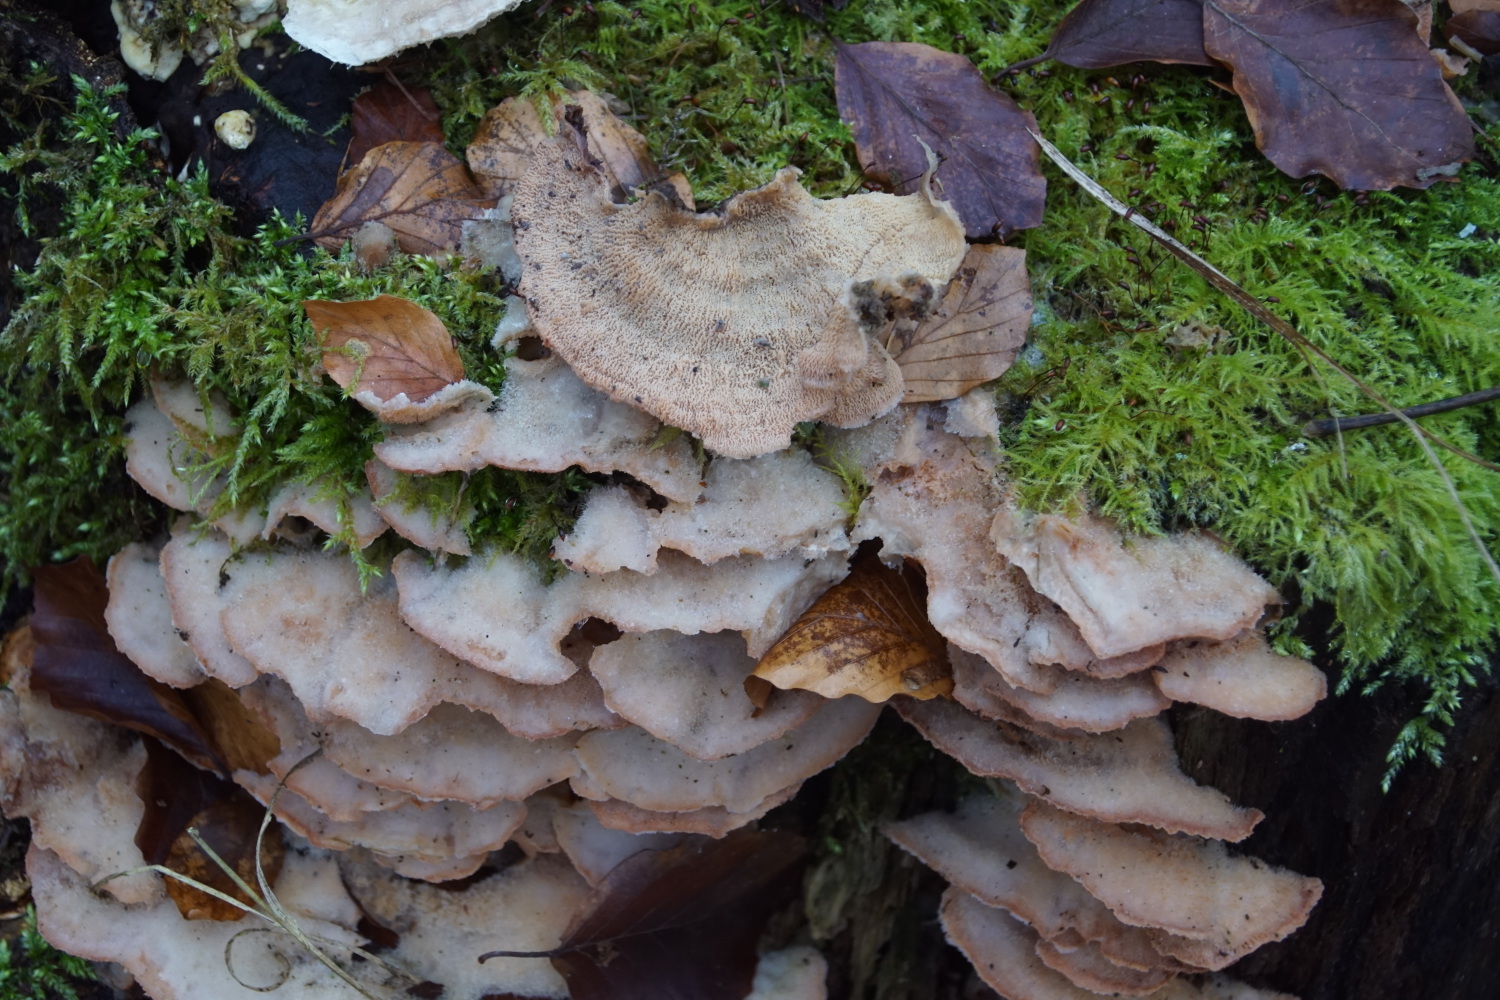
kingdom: Fungi
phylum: Basidiomycota
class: Agaricomycetes
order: Polyporales
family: Meruliaceae
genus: Phlebia
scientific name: Phlebia tremellosa
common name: bævrende åresvamp
